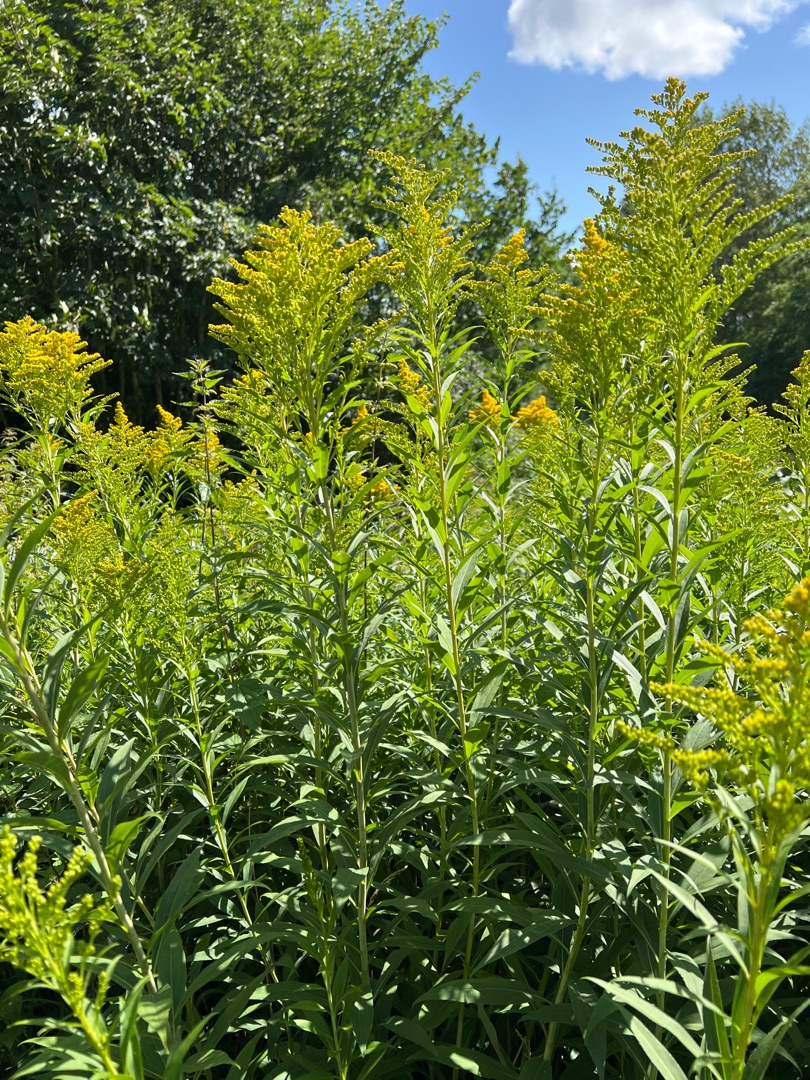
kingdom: Plantae
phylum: Tracheophyta
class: Magnoliopsida
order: Asterales
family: Asteraceae
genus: Solidago
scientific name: Solidago gigantea
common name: Sildig gyldenris
